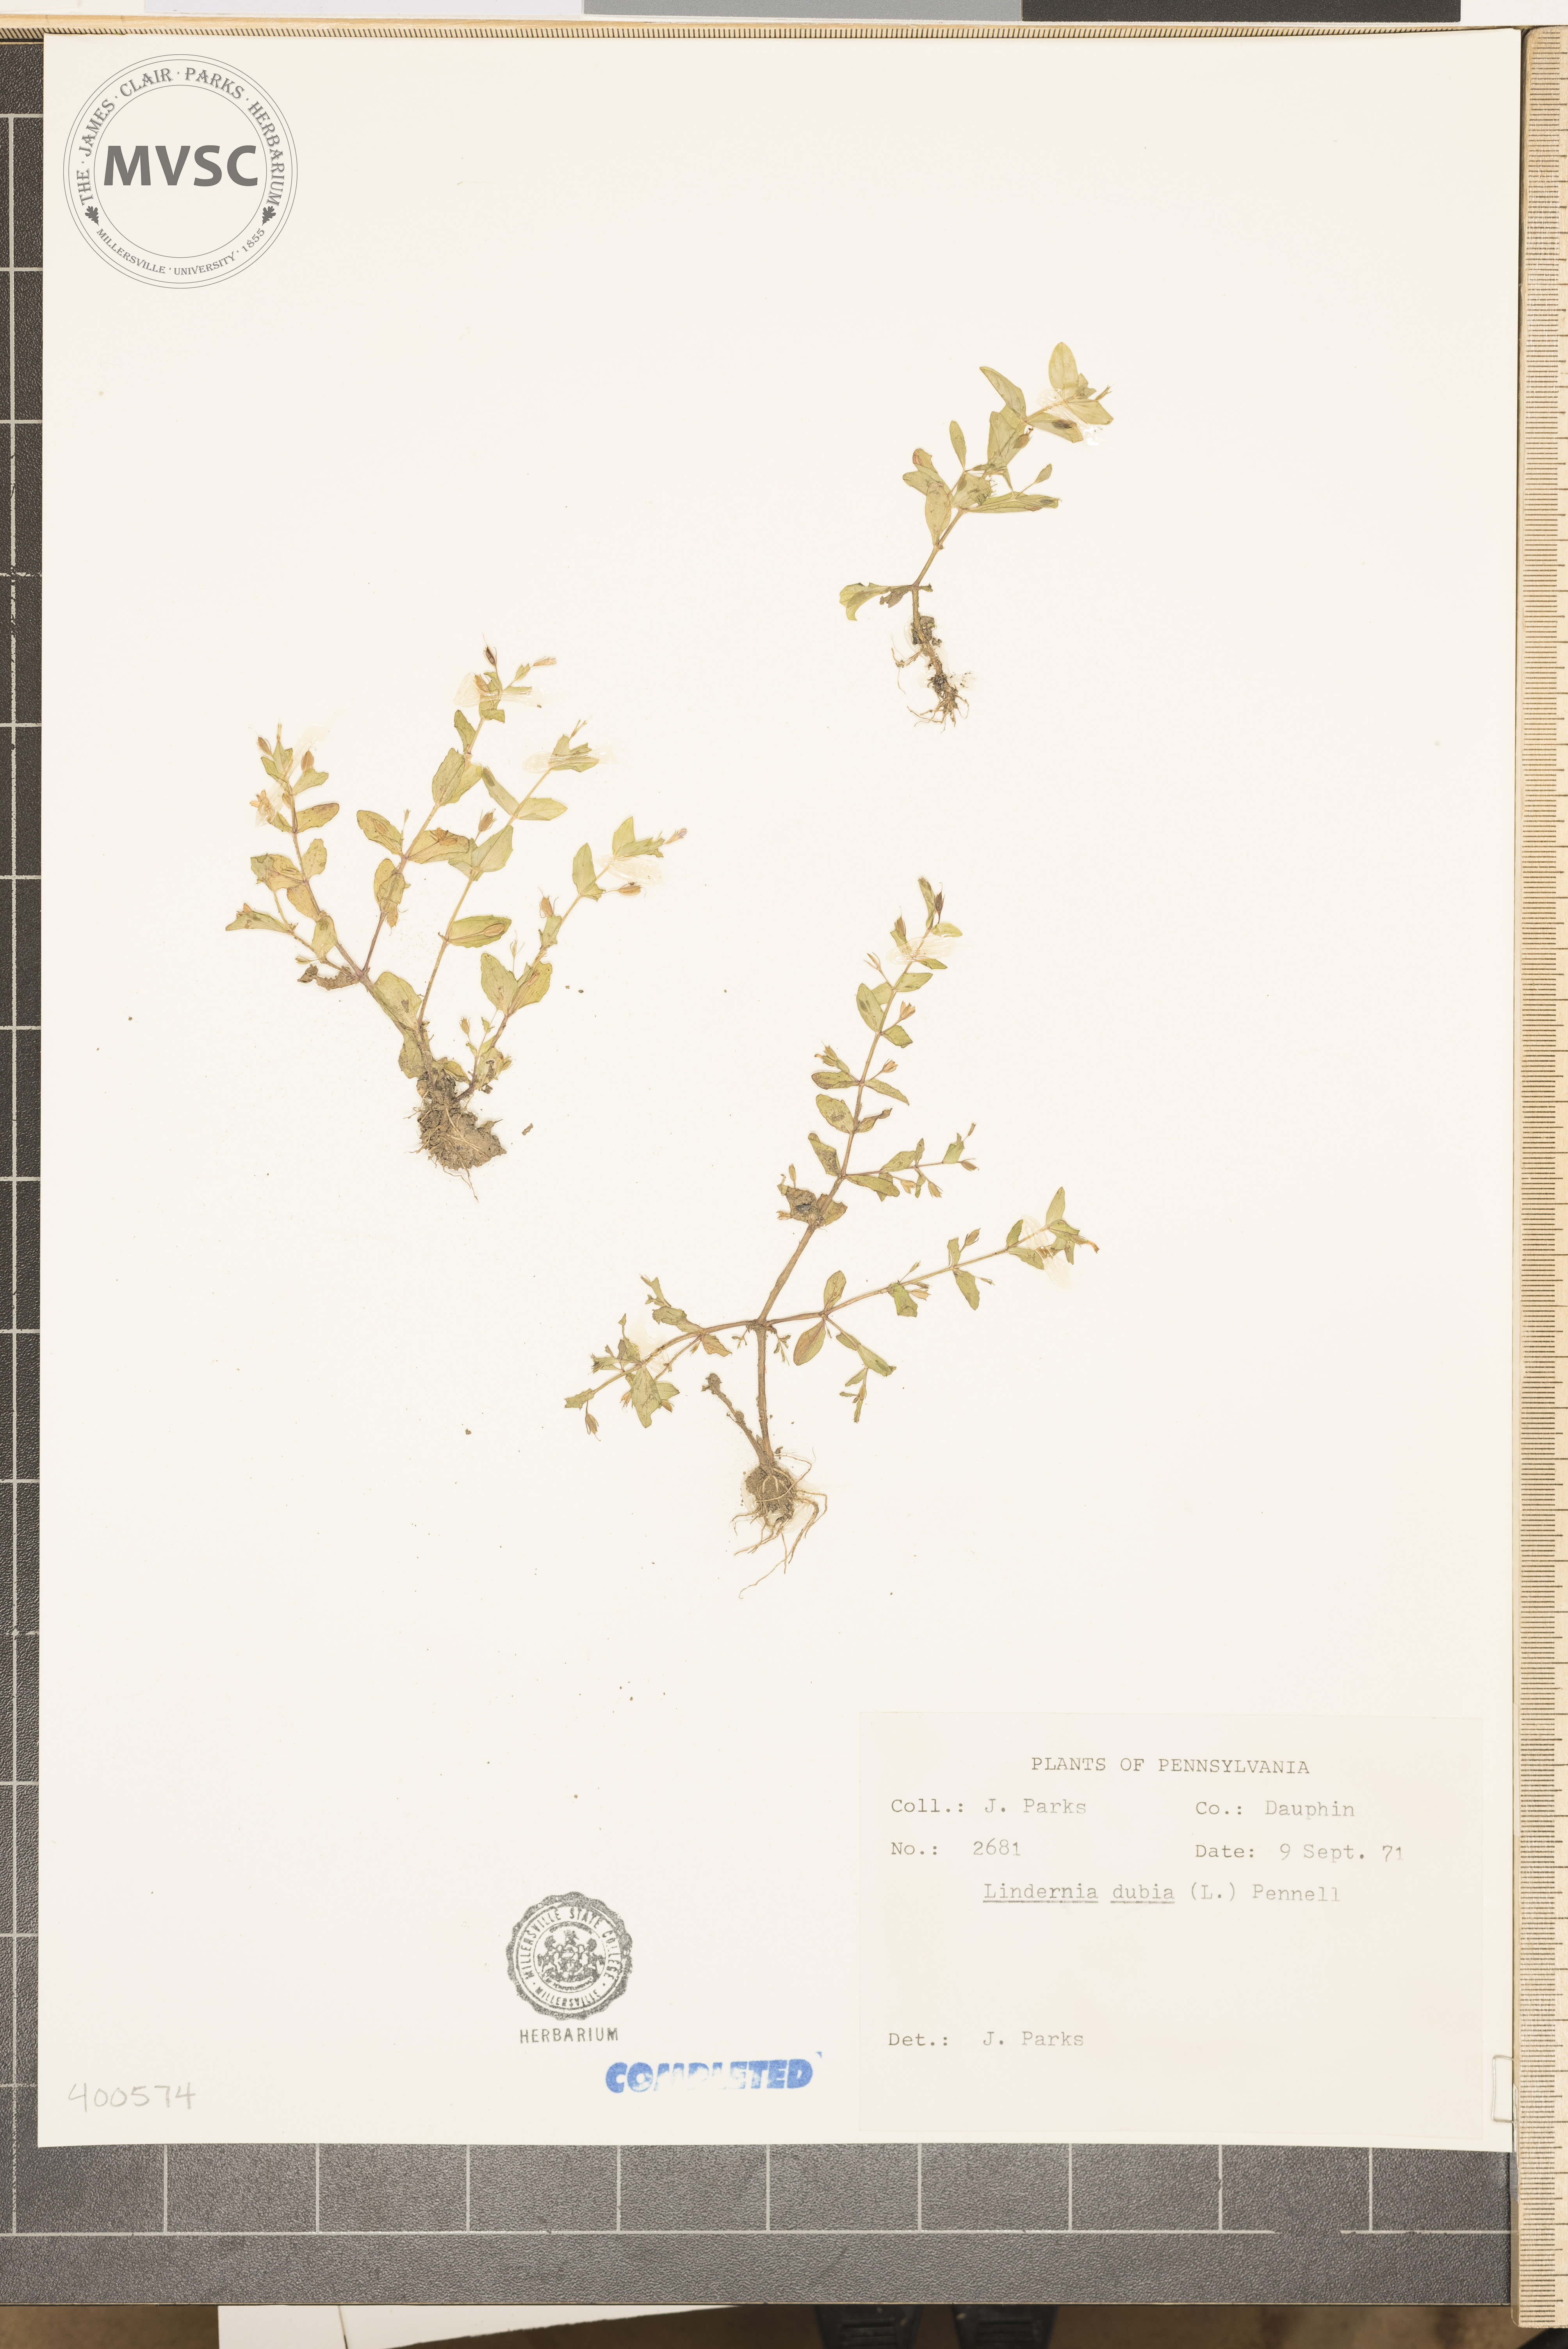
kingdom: Plantae
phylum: Tracheophyta
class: Magnoliopsida
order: Lamiales
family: Linderniaceae
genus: Lindernia
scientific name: Lindernia dubia
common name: Annual false pimpernel
